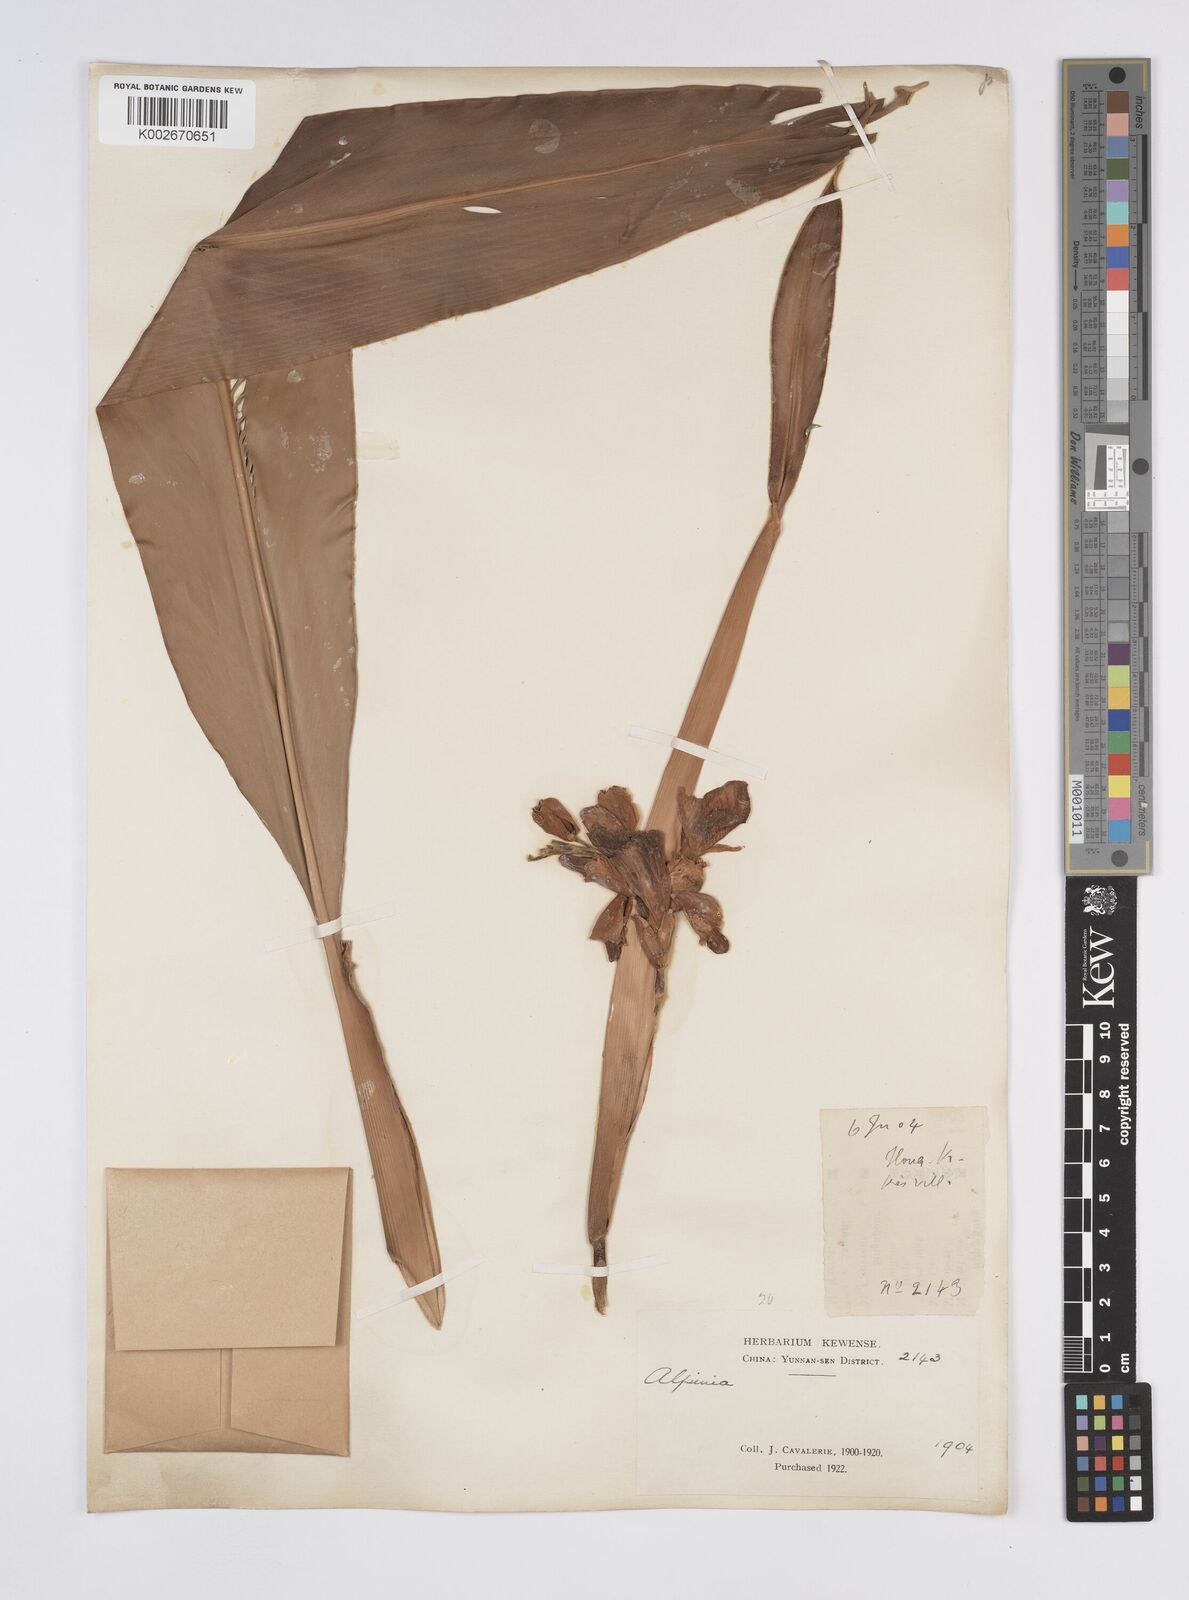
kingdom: Plantae
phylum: Tracheophyta
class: Liliopsida
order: Zingiberales
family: Zingiberaceae
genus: Alpinia
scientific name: Alpinia
